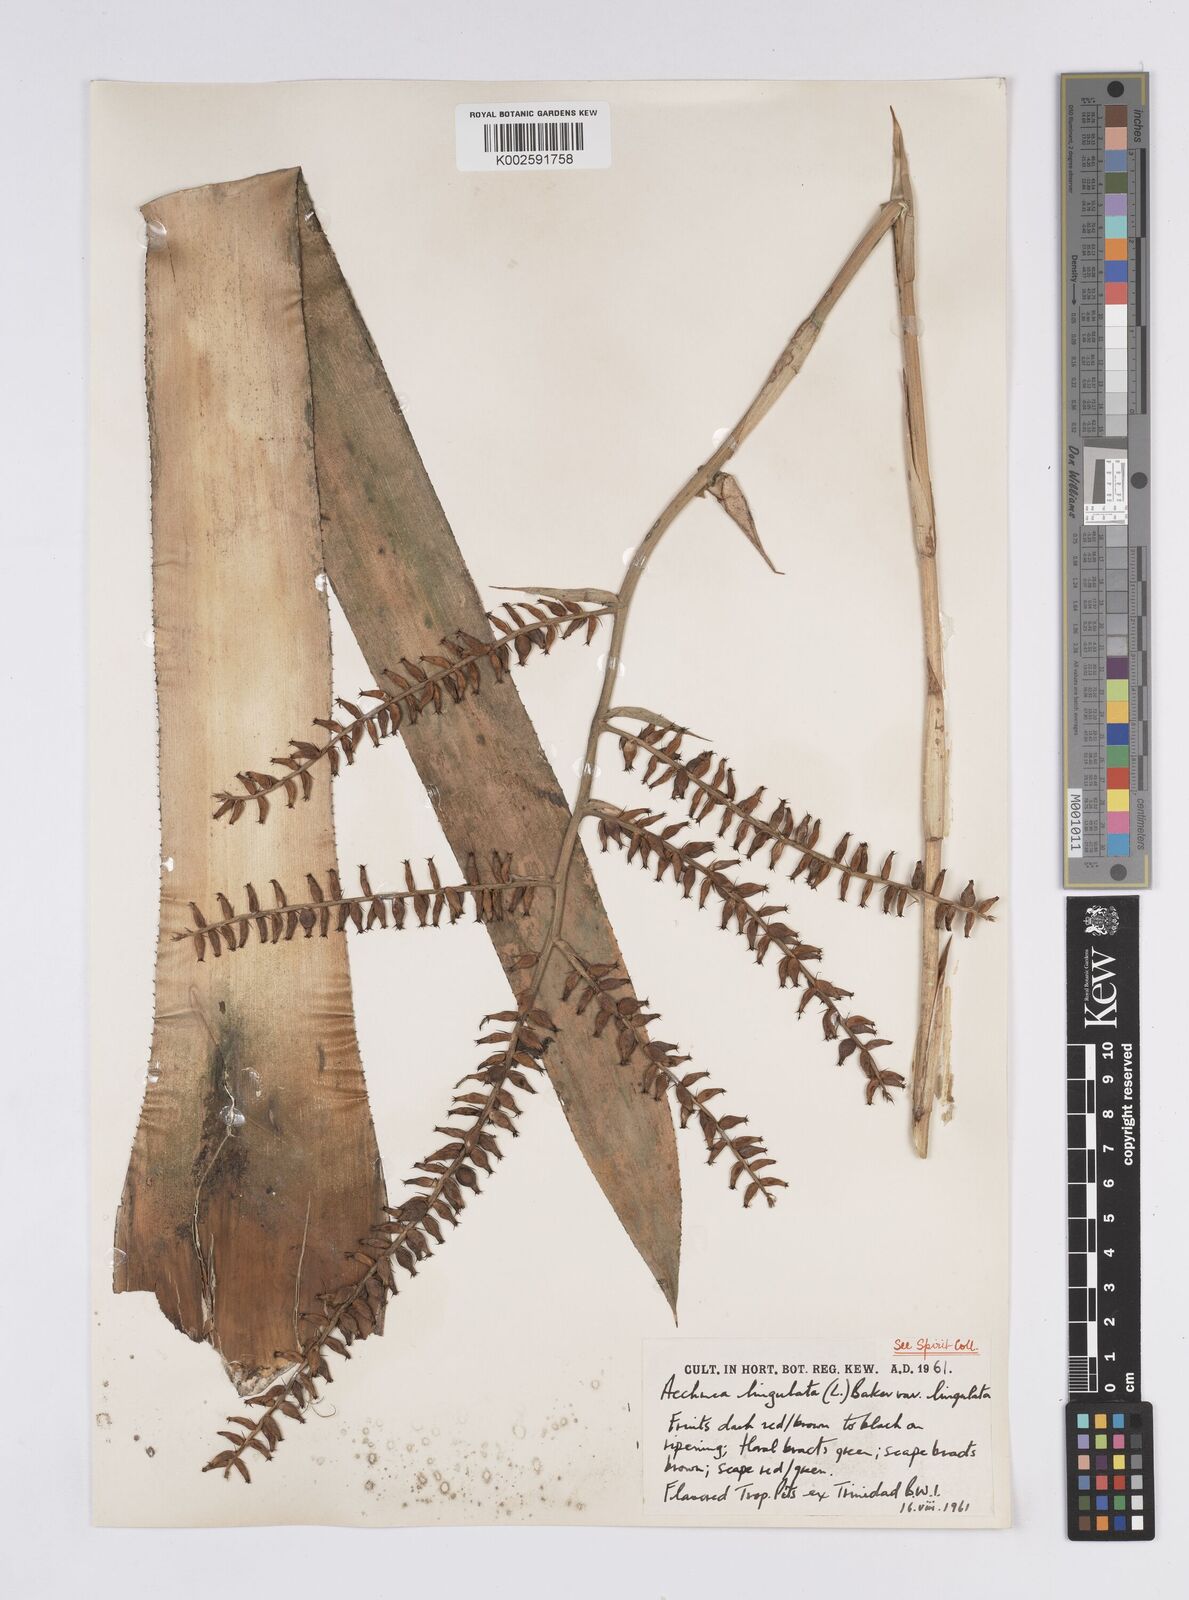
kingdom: Plantae
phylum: Tracheophyta
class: Liliopsida
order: Poales
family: Bromeliaceae
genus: Wittmackia
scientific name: Wittmackia lingulata
